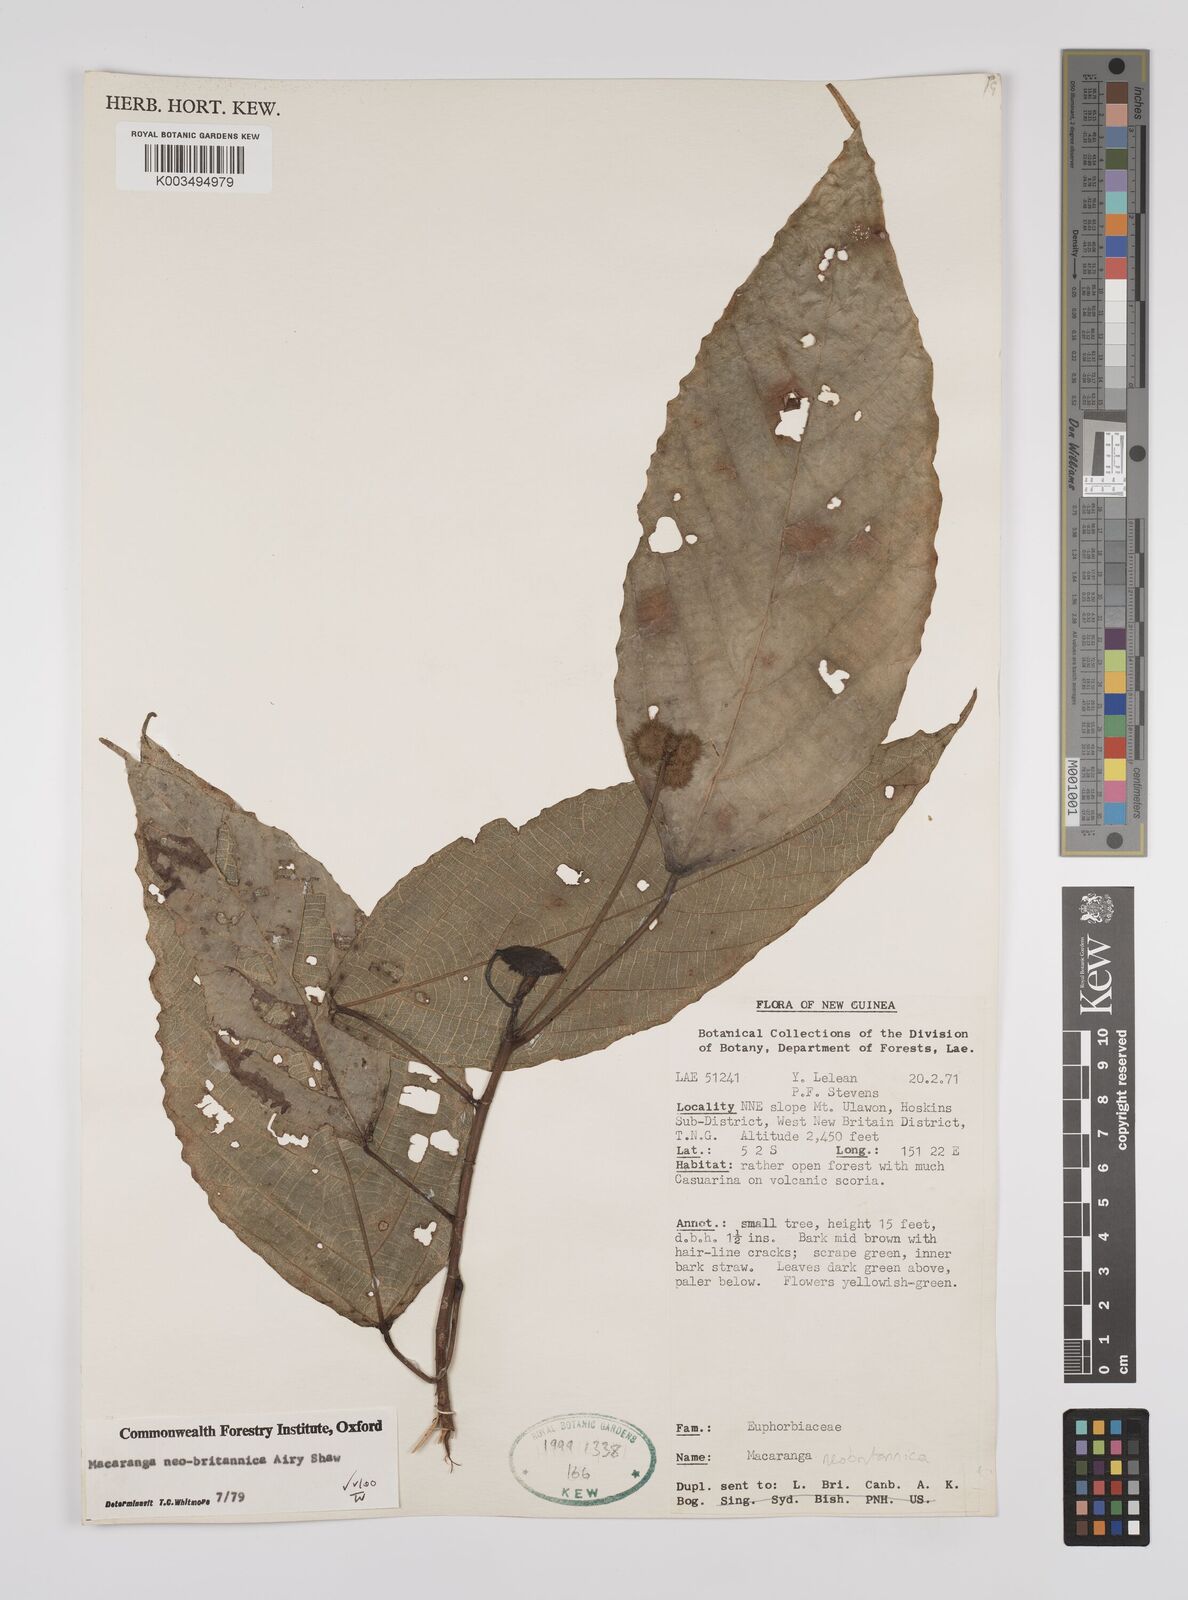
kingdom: Plantae
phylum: Tracheophyta
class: Magnoliopsida
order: Malpighiales
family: Euphorbiaceae
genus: Macaranga
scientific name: Macaranga neobritannica
